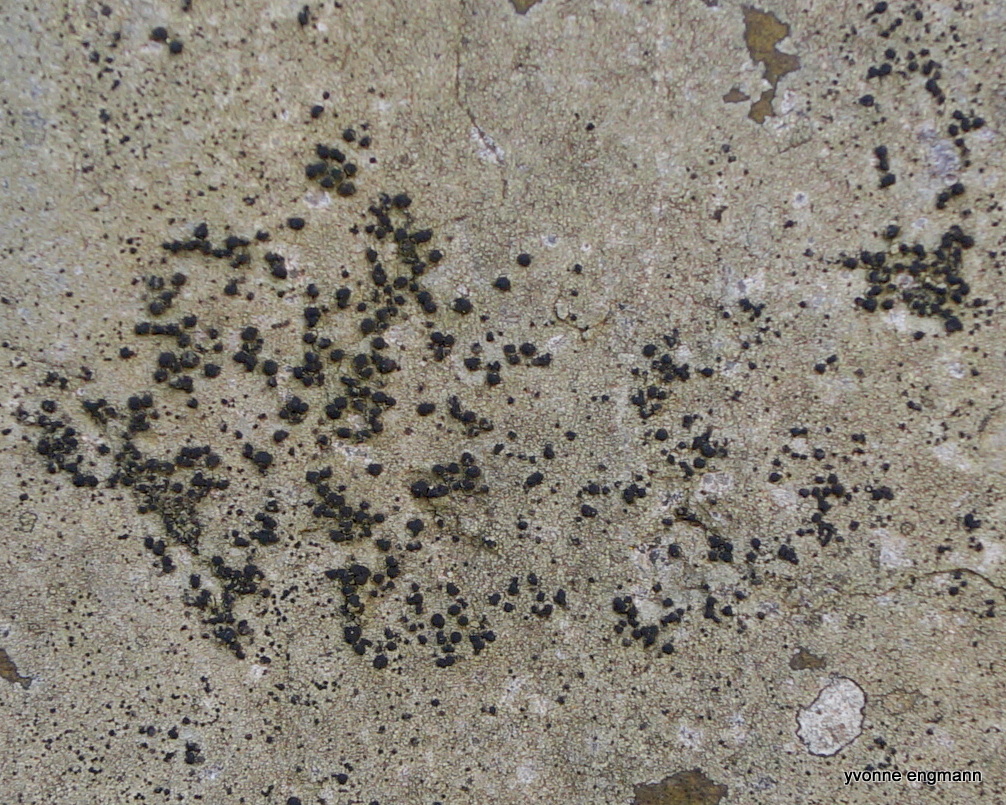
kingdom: Fungi
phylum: Ascomycota
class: Lecanoromycetes
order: Lecanorales
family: Lecanoraceae
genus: Lecidella
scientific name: Lecidella scabra
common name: skurvet skivelav
